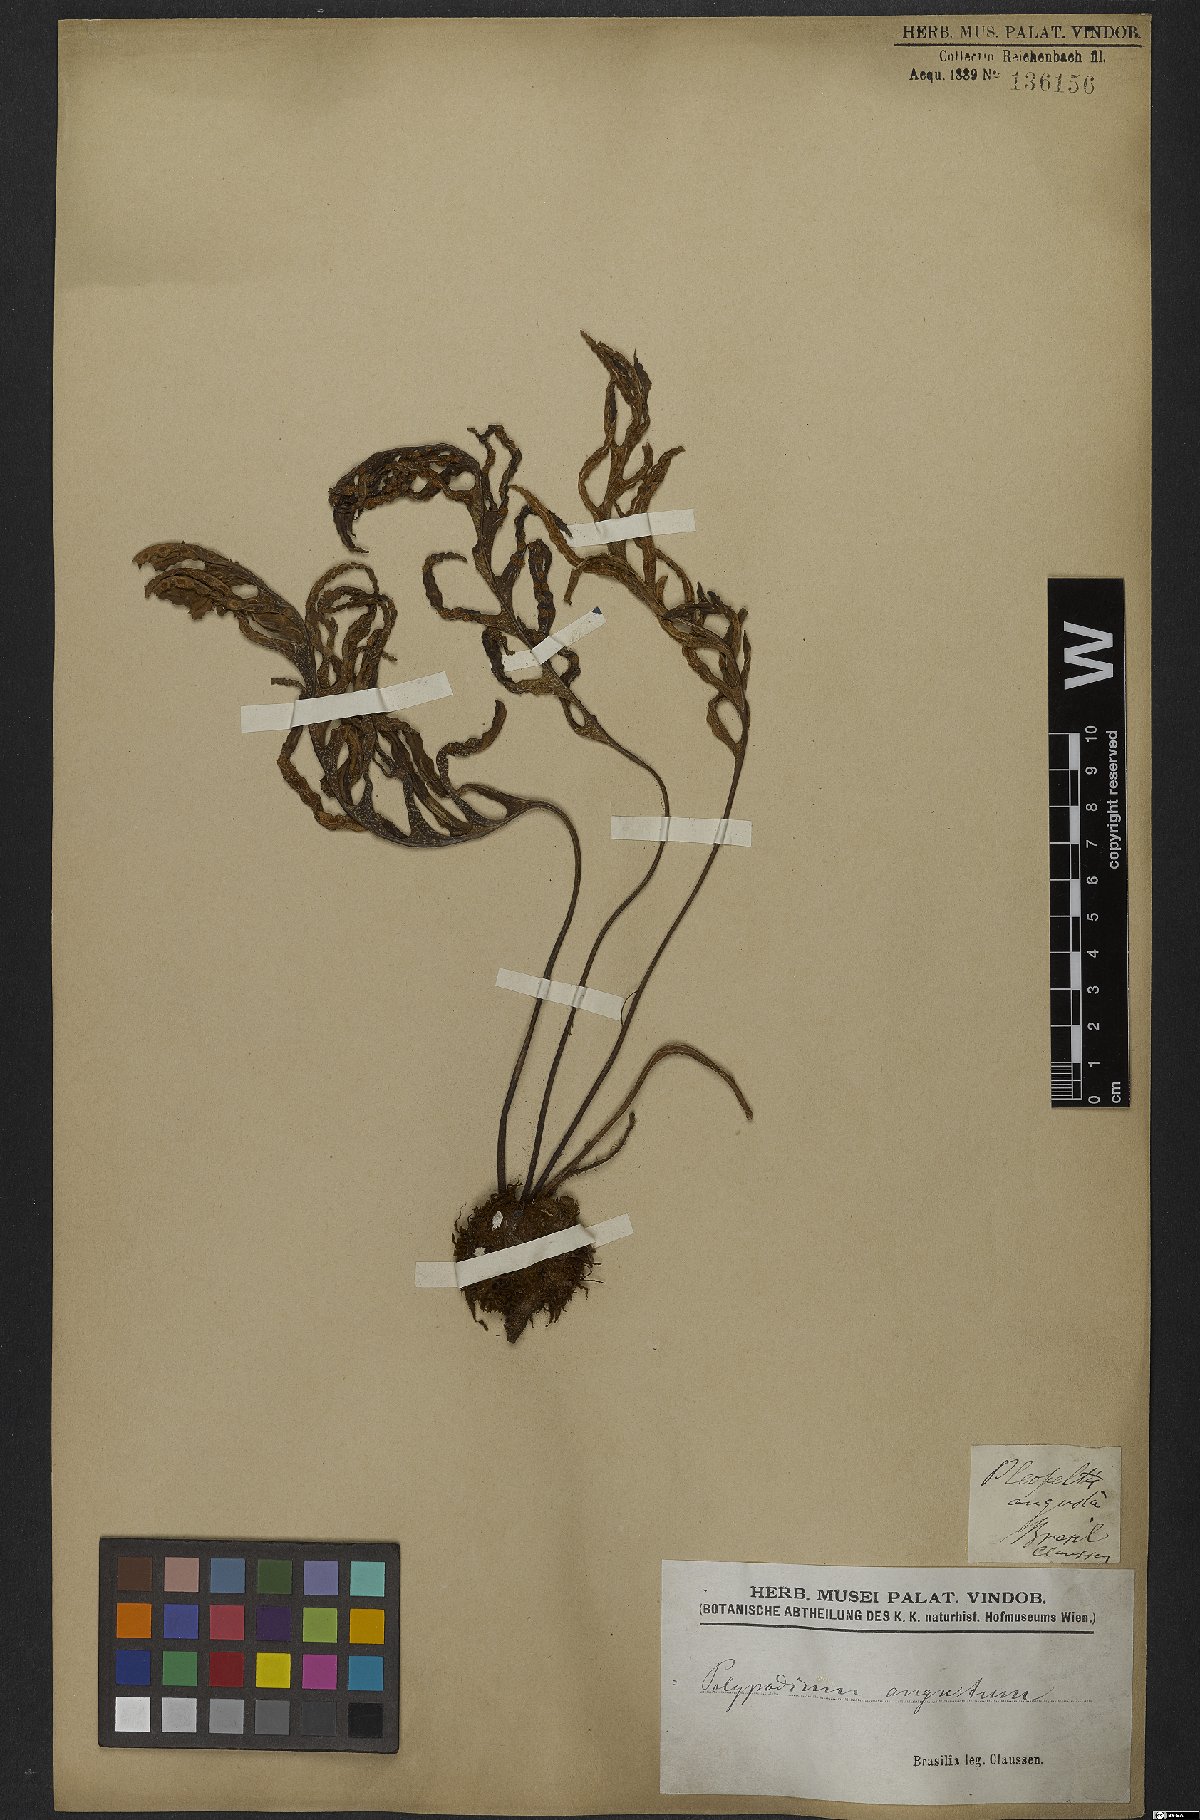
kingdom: Plantae
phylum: Tracheophyta
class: Polypodiopsida
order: Polypodiales
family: Polypodiaceae
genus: Pleopeltis
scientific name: Pleopeltis angusta
